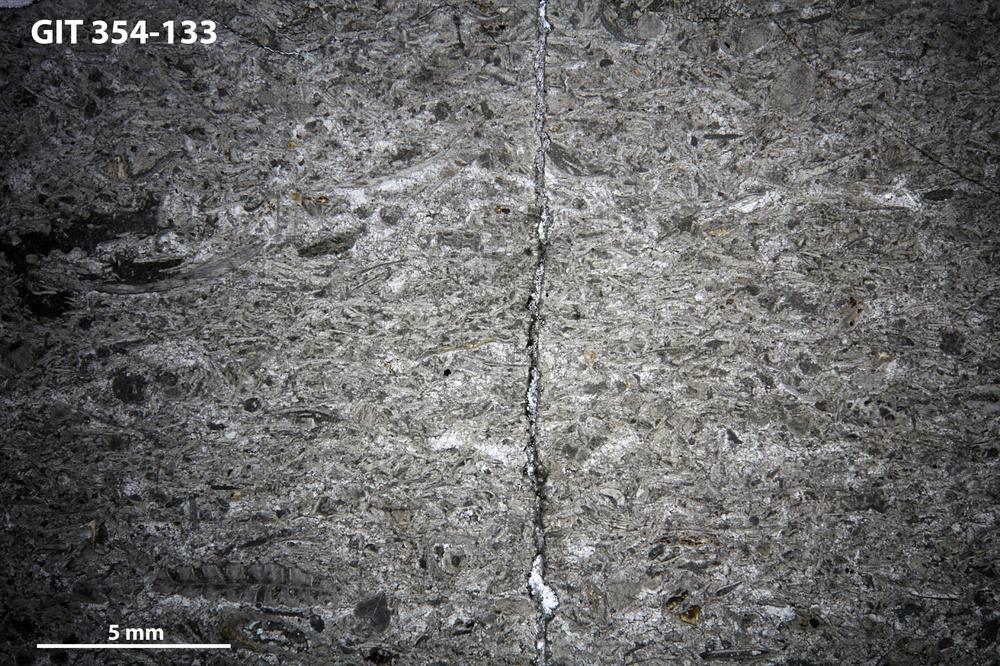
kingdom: Animalia
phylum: Porifera
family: Clathrodictyidae
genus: Clathrodictyon
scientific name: Clathrodictyon boreale
